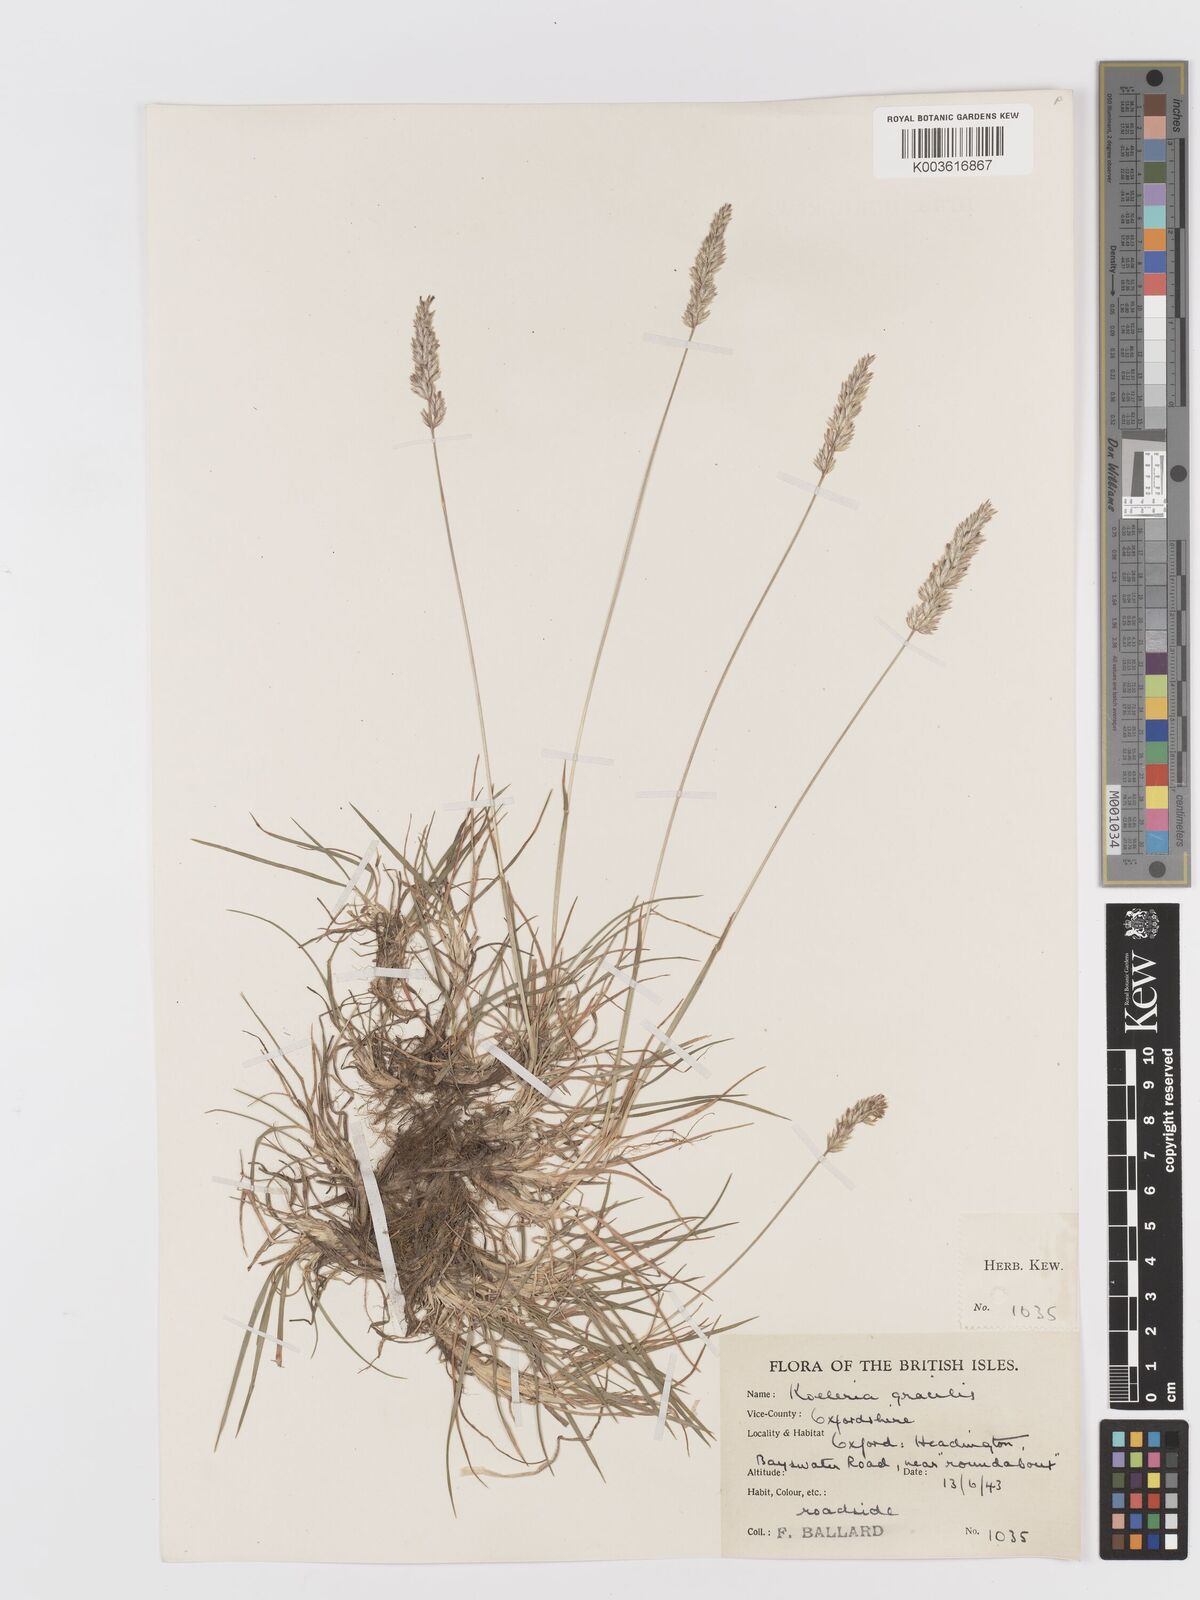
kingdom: Plantae
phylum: Tracheophyta
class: Liliopsida
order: Poales
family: Poaceae
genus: Koeleria
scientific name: Koeleria macrantha
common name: Crested hair-grass
